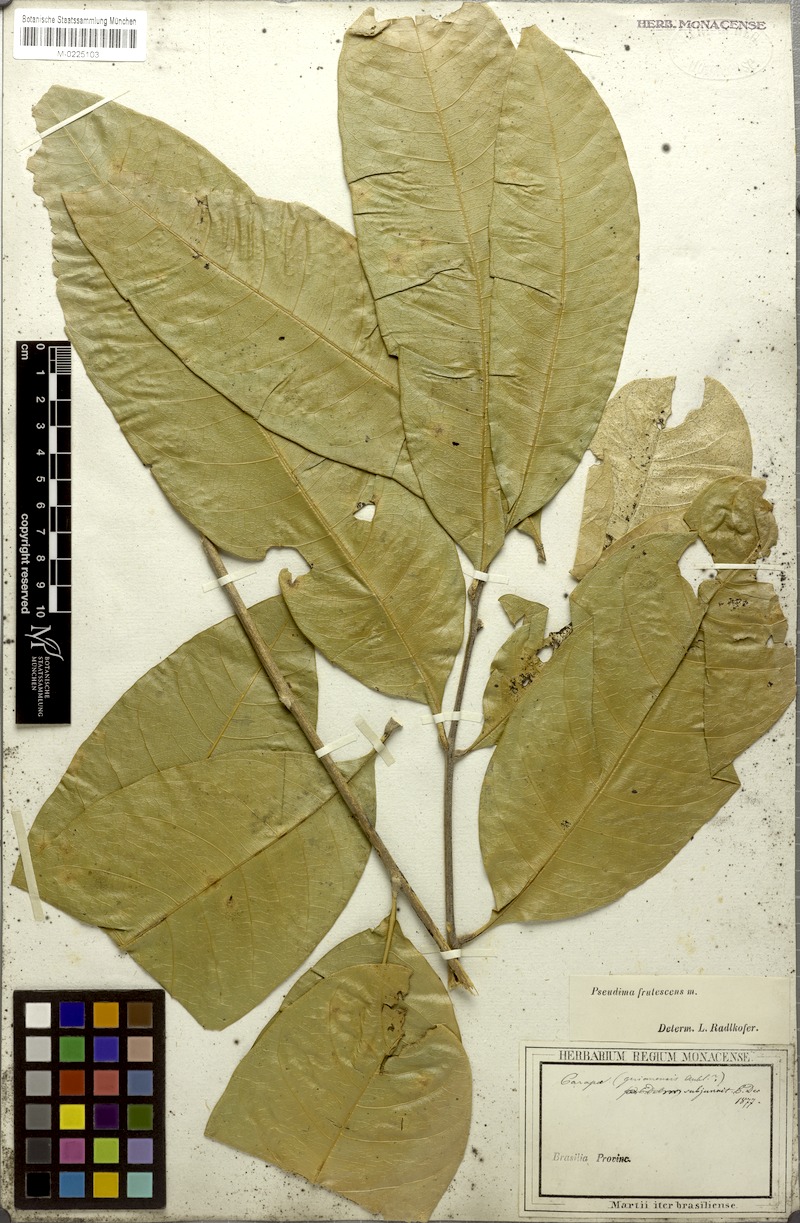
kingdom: Plantae
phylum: Tracheophyta
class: Magnoliopsida
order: Sapindales
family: Sapindaceae
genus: Pseudima
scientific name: Pseudima frutescens
